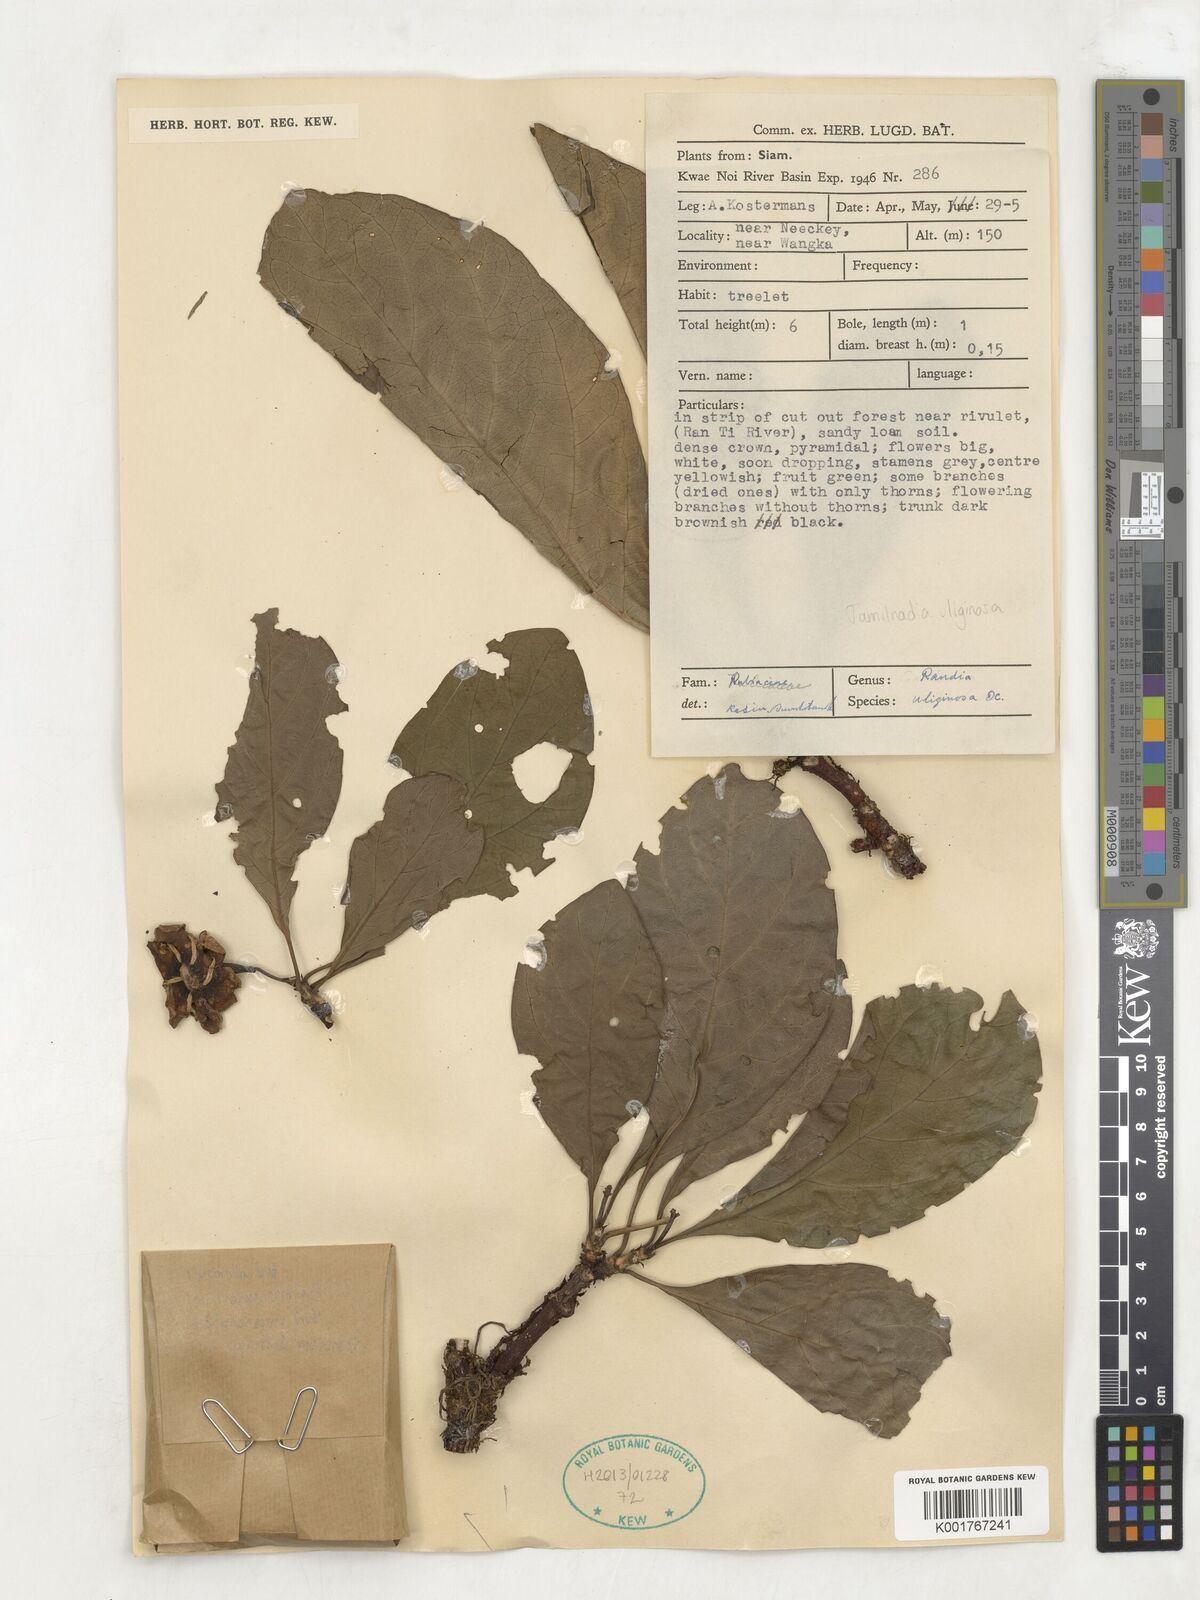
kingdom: Plantae
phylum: Tracheophyta
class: Magnoliopsida
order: Gentianales
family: Rubiaceae
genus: Tamilnadia
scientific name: Tamilnadia uliginosa
